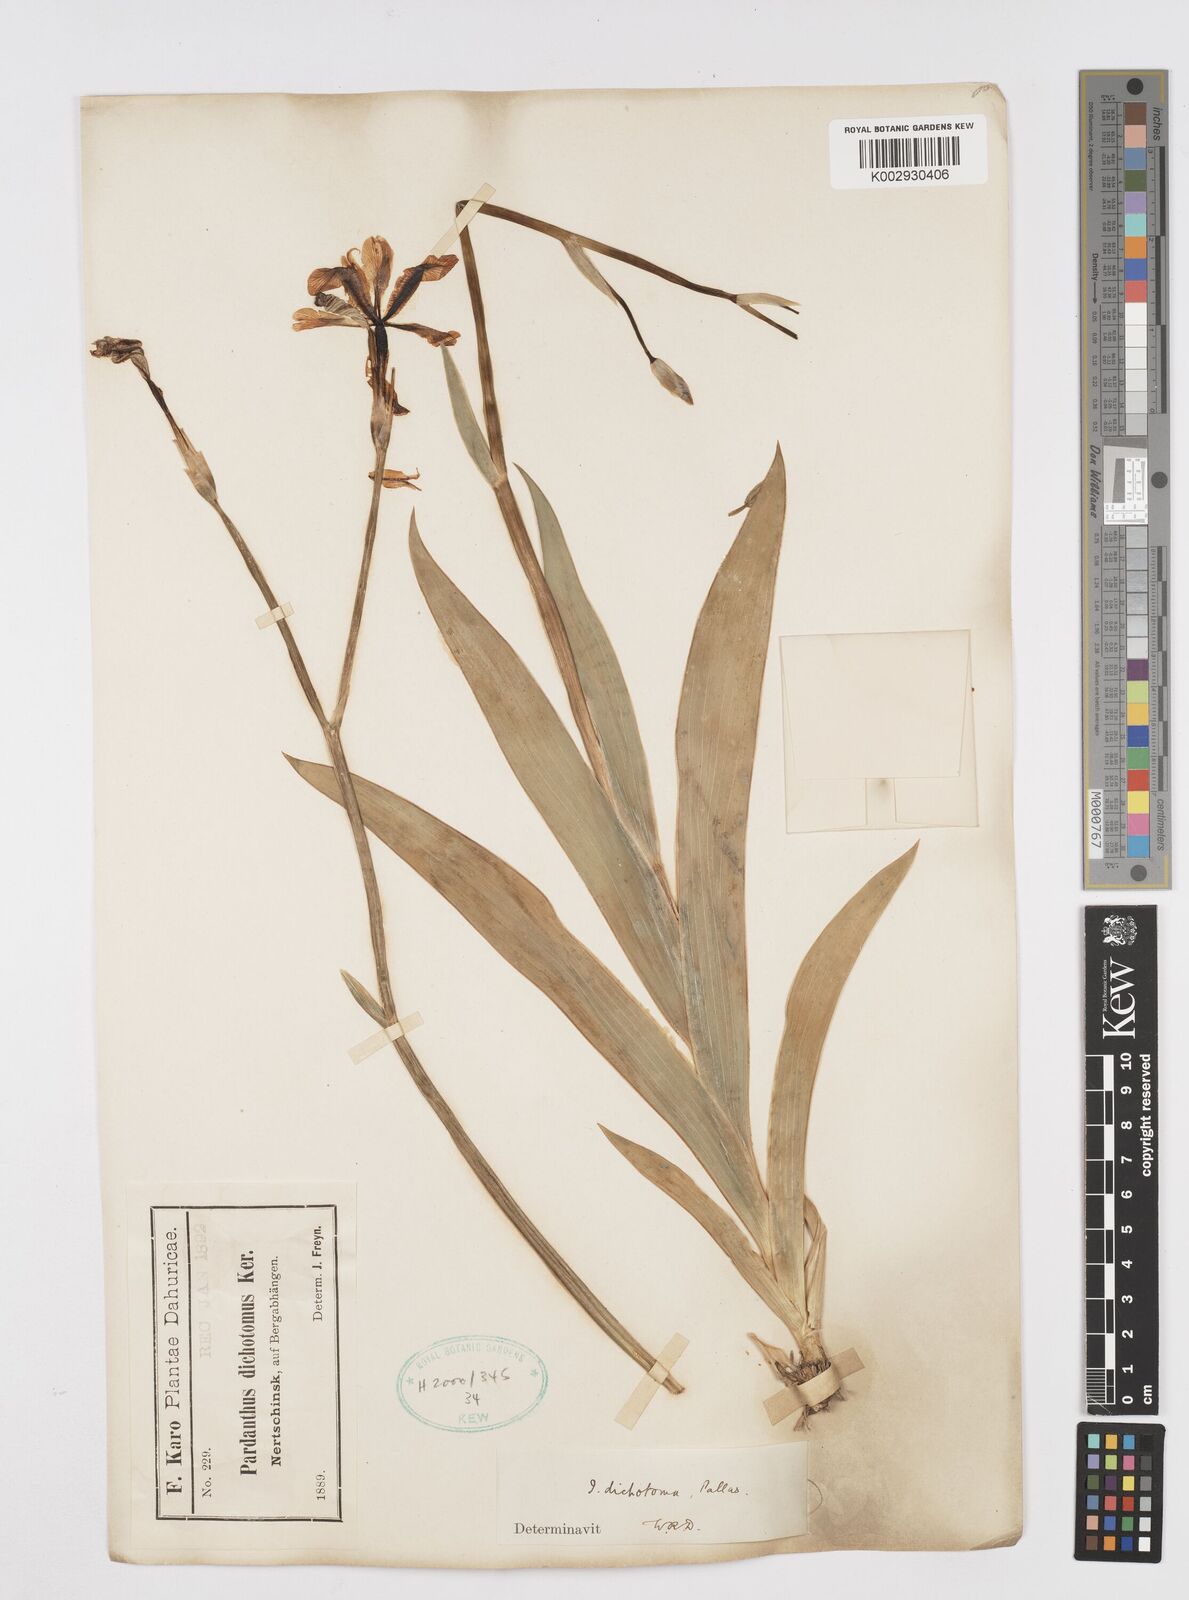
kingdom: Plantae
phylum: Tracheophyta
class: Liliopsida
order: Asparagales
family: Iridaceae
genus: Iris
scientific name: Iris dichotoma
